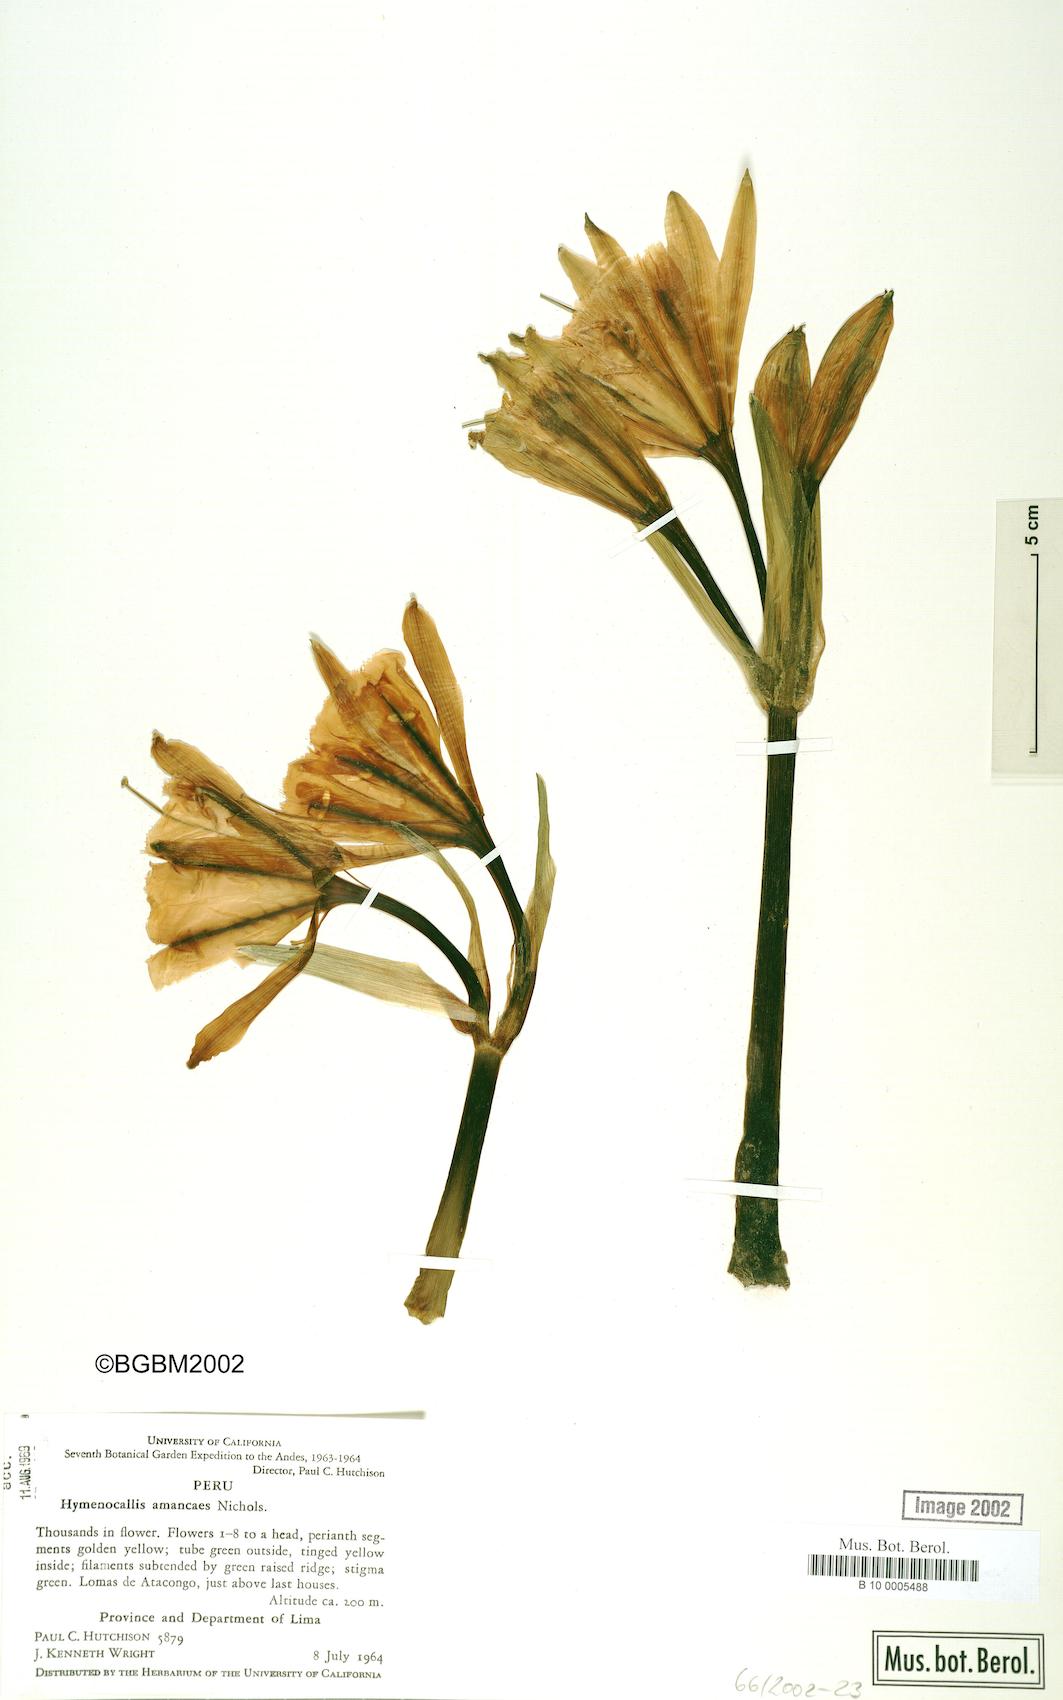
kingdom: Plantae
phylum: Tracheophyta
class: Liliopsida
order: Asparagales
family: Amaryllidaceae
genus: Ismene
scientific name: Ismene amancaes
